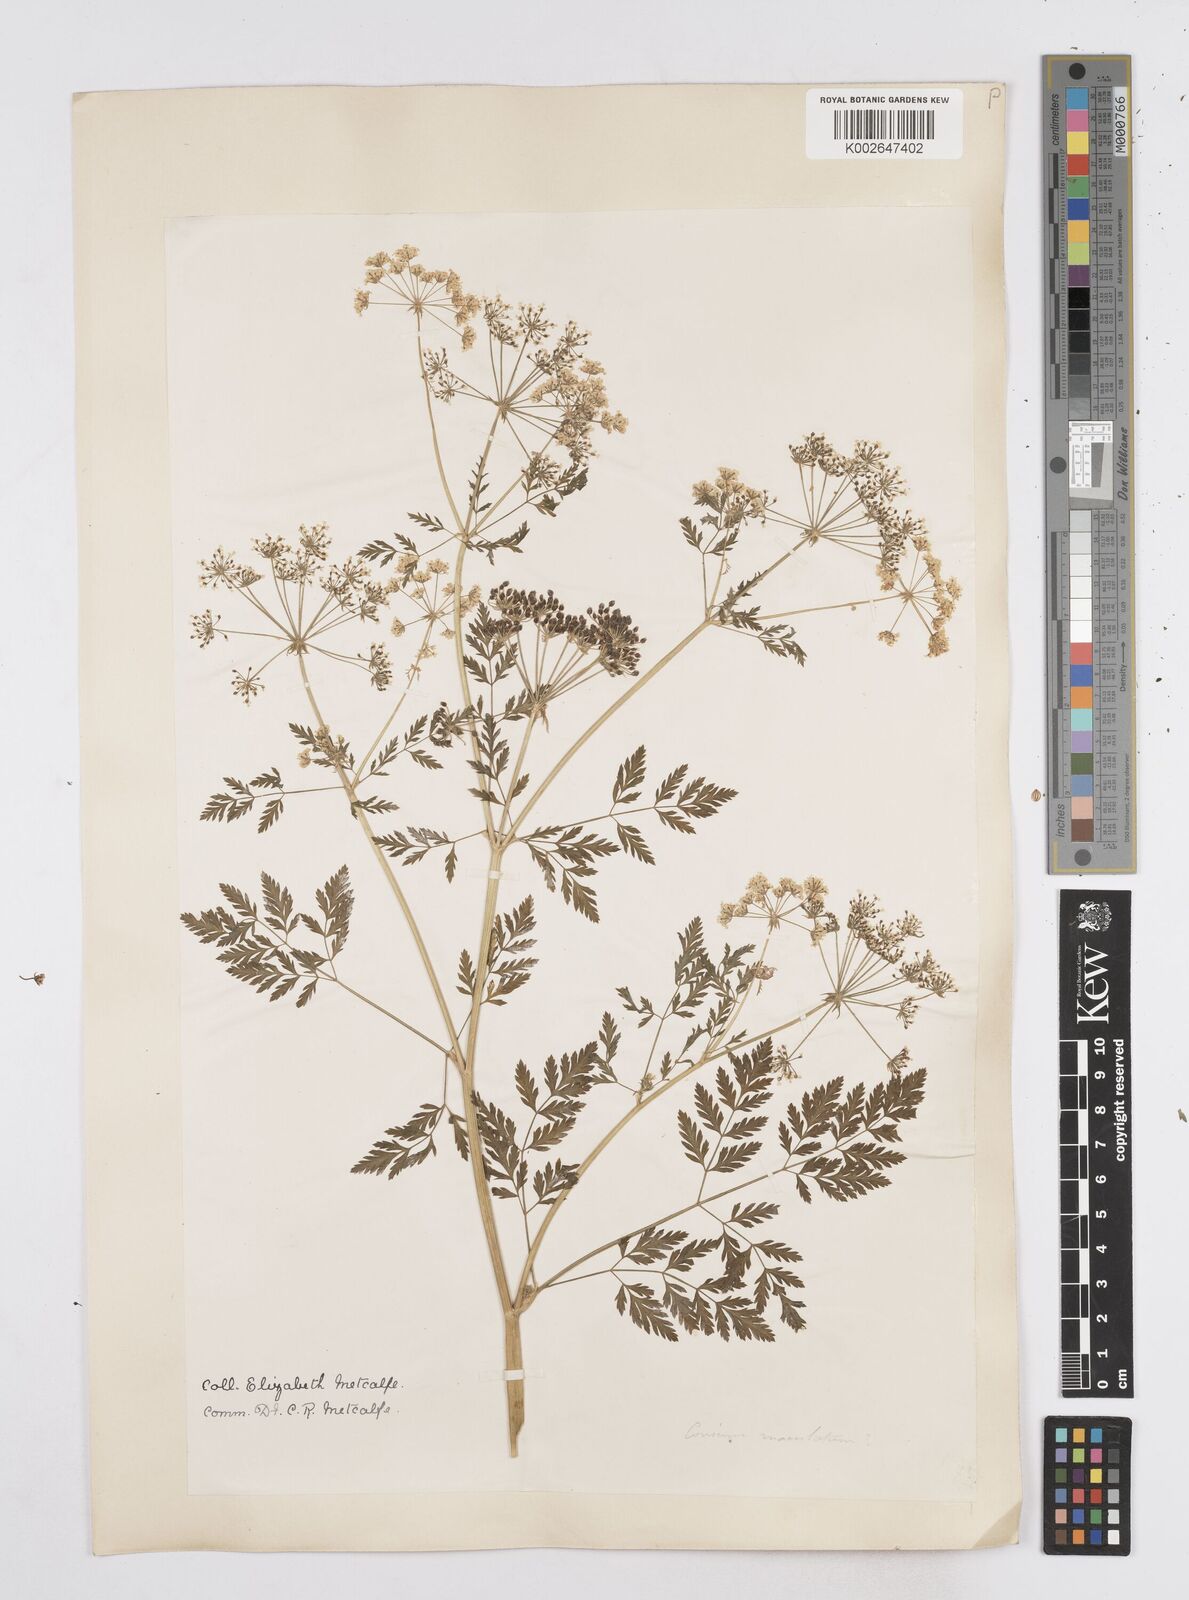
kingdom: Plantae
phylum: Tracheophyta
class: Magnoliopsida
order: Apiales
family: Apiaceae
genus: Conium
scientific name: Conium maculatum
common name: Hemlock
